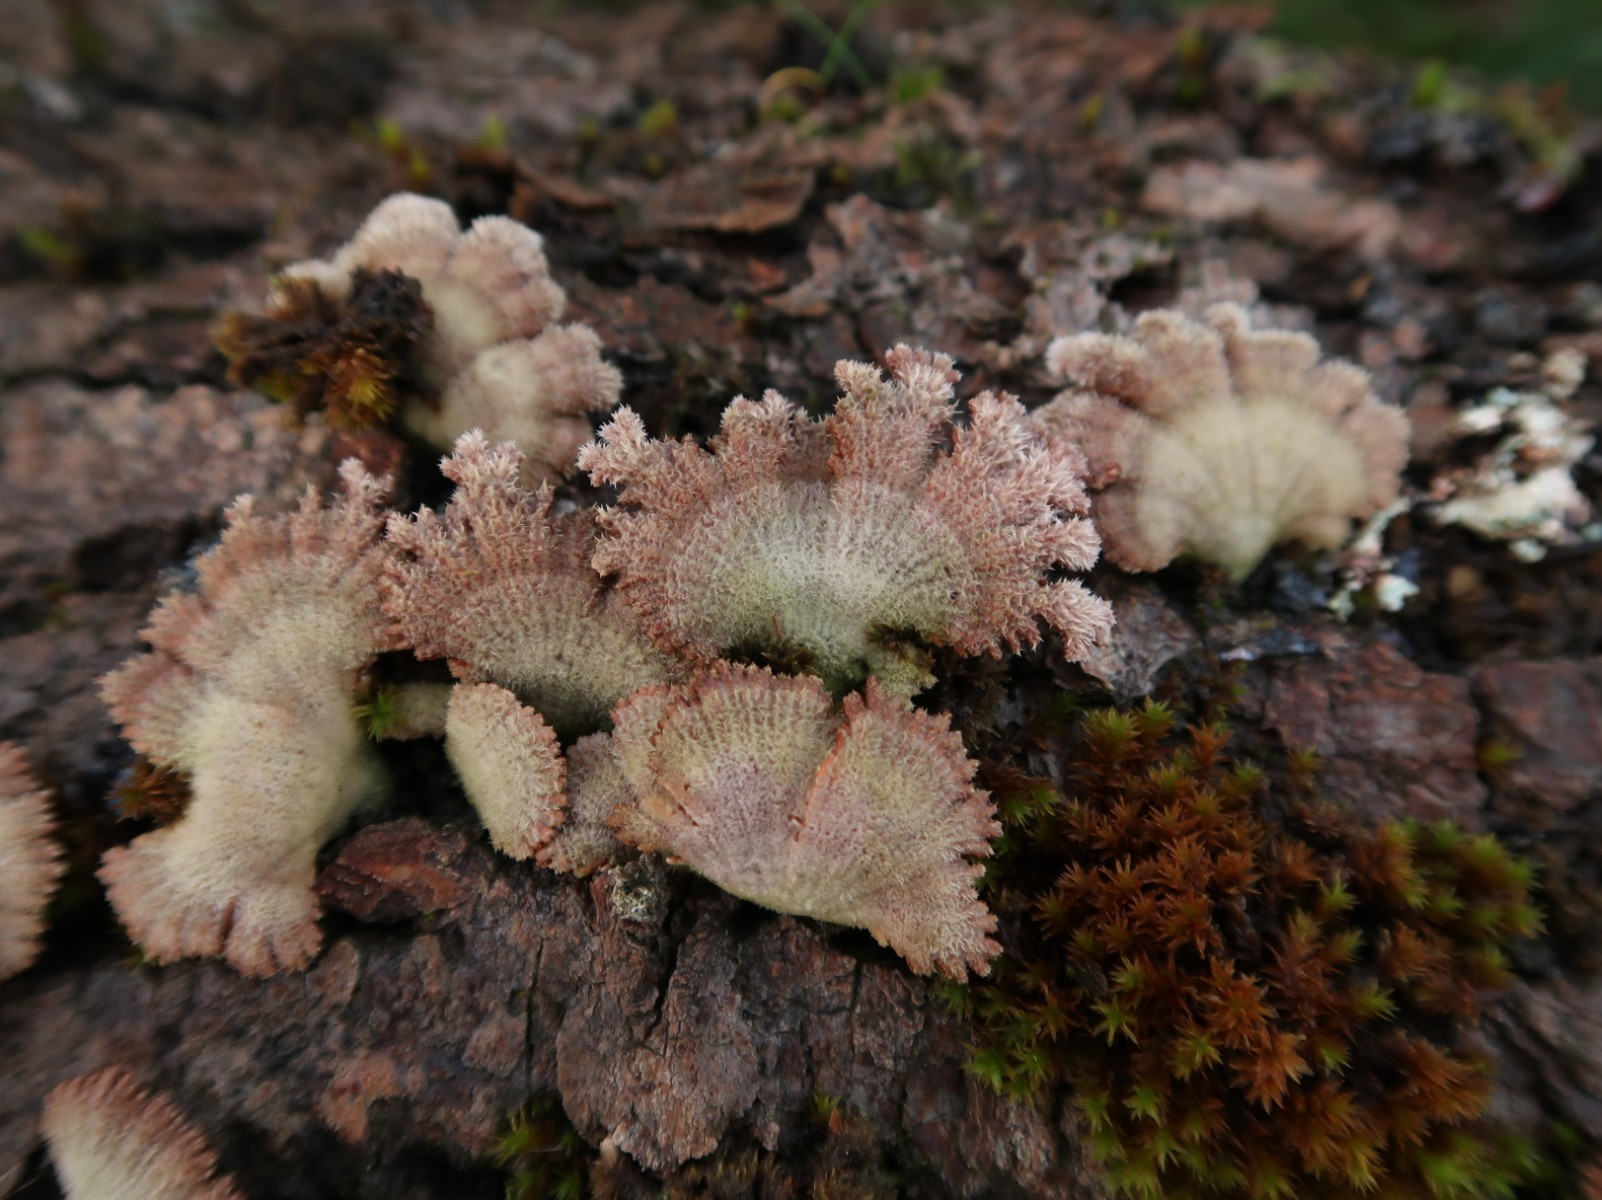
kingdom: Fungi
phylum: Basidiomycota
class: Agaricomycetes
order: Agaricales
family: Schizophyllaceae
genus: Schizophyllum
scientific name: Schizophyllum commune
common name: kløvblad
